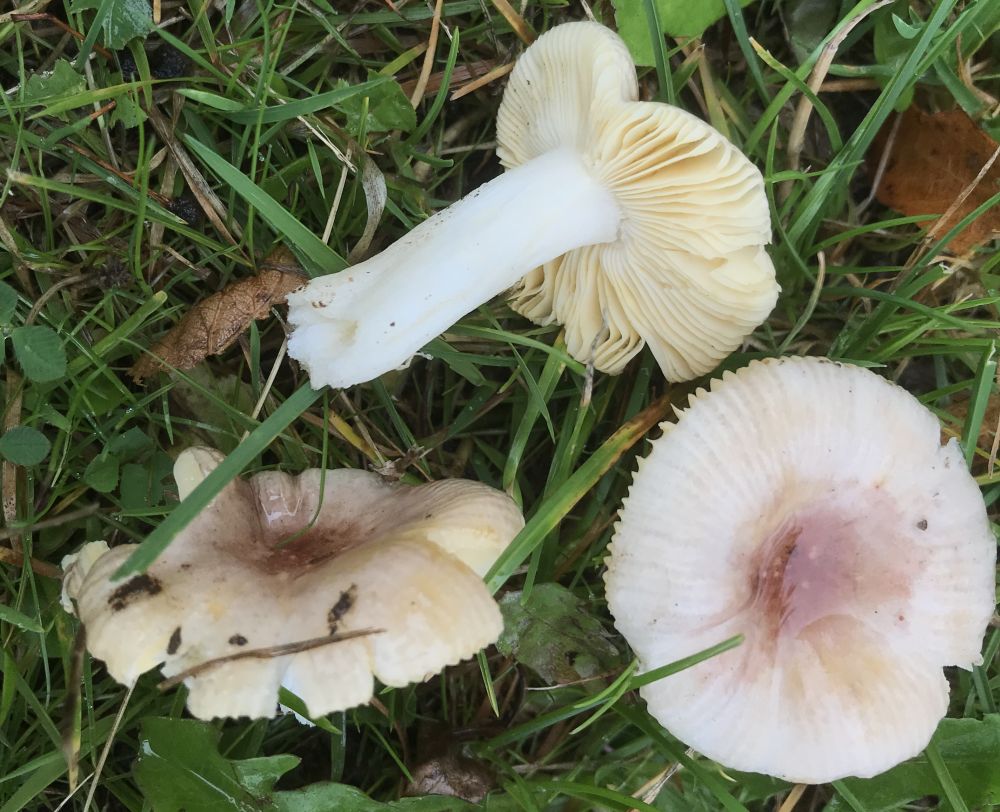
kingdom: Fungi
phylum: Basidiomycota
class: Agaricomycetes
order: Russulales
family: Russulaceae
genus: Russula
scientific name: Russula odorata
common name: duft-skørhat
